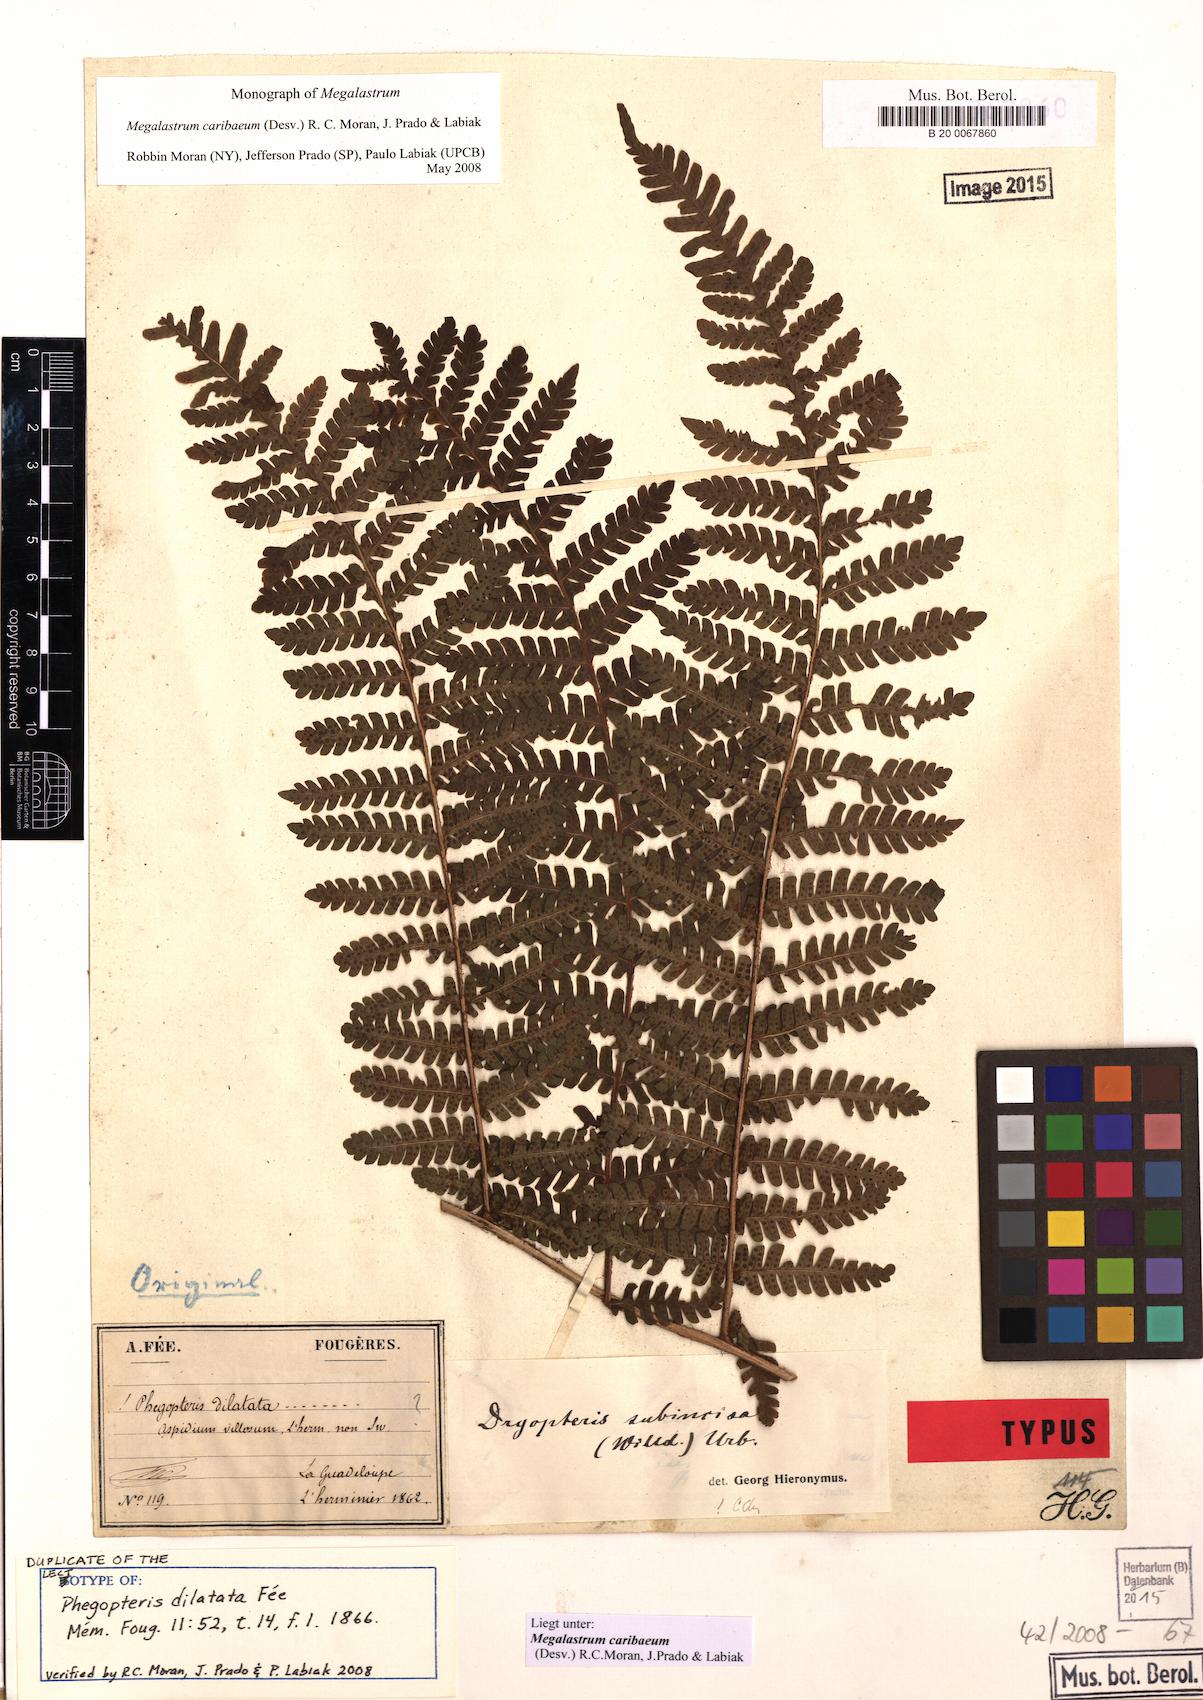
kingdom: Plantae
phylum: Tracheophyta
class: Polypodiopsida
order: Polypodiales
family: Dryopteridaceae
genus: Megalastrum
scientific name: Megalastrum caribaeum
